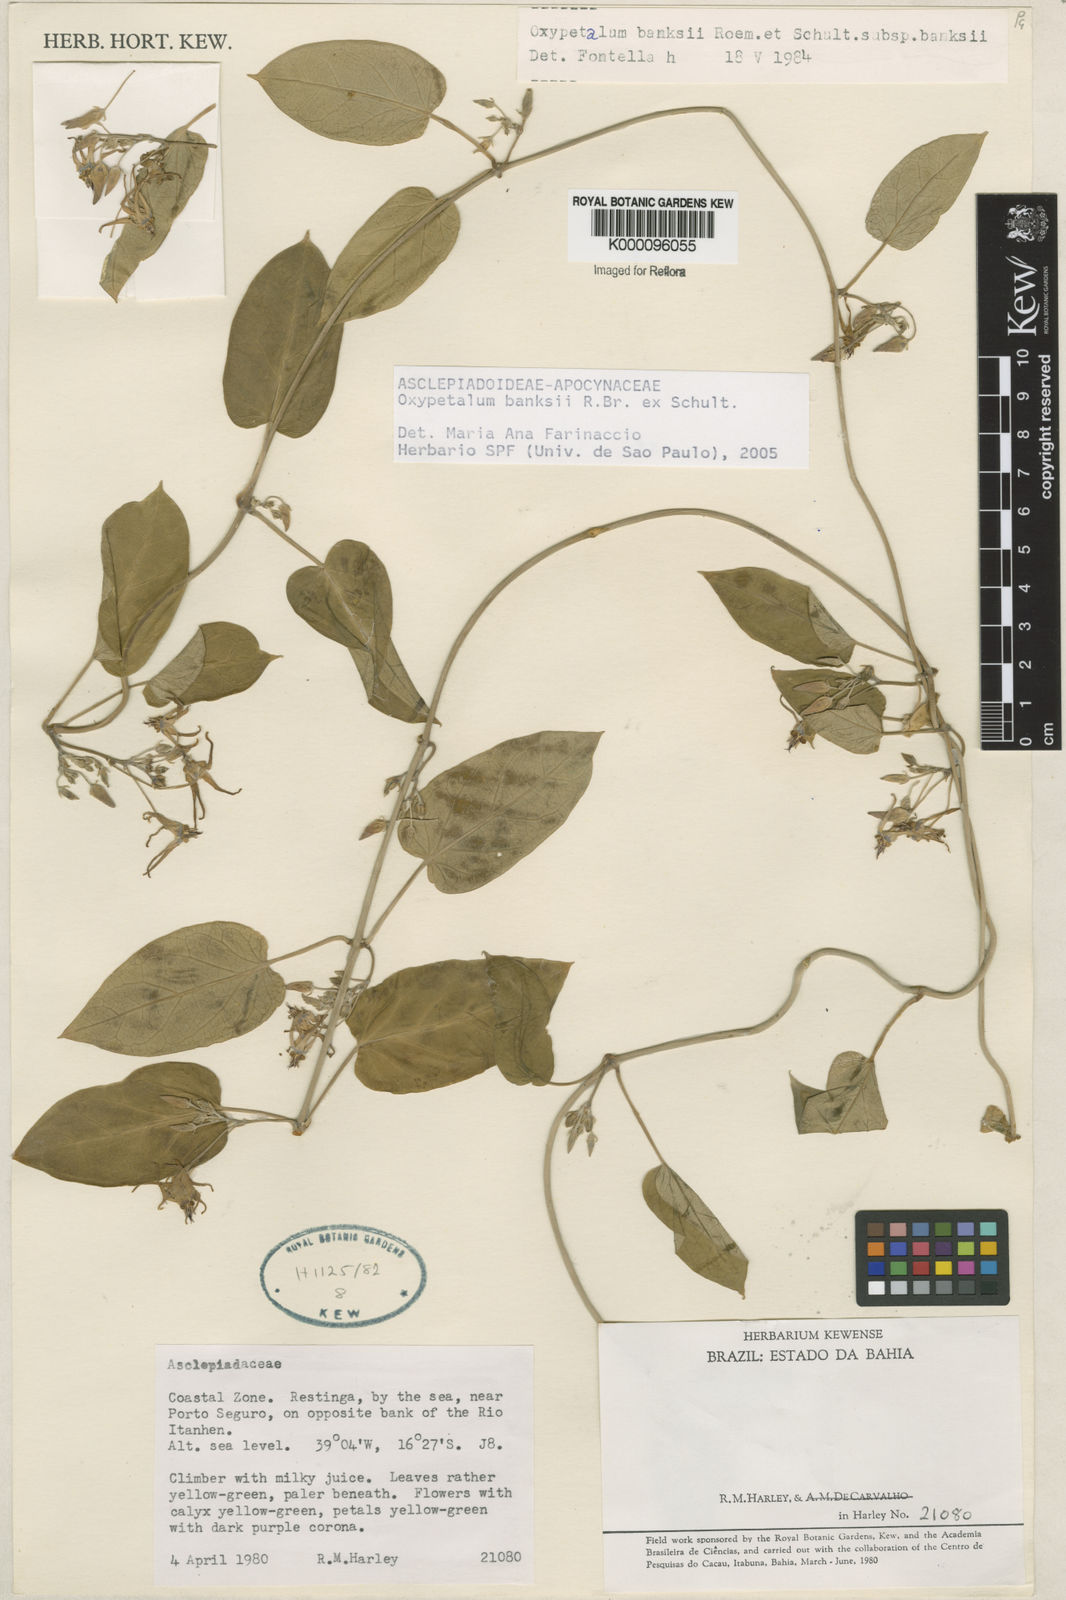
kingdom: Plantae
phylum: Tracheophyta
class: Magnoliopsida
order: Gentianales
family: Apocynaceae
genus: Oxypetalum
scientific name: Oxypetalum banksii
